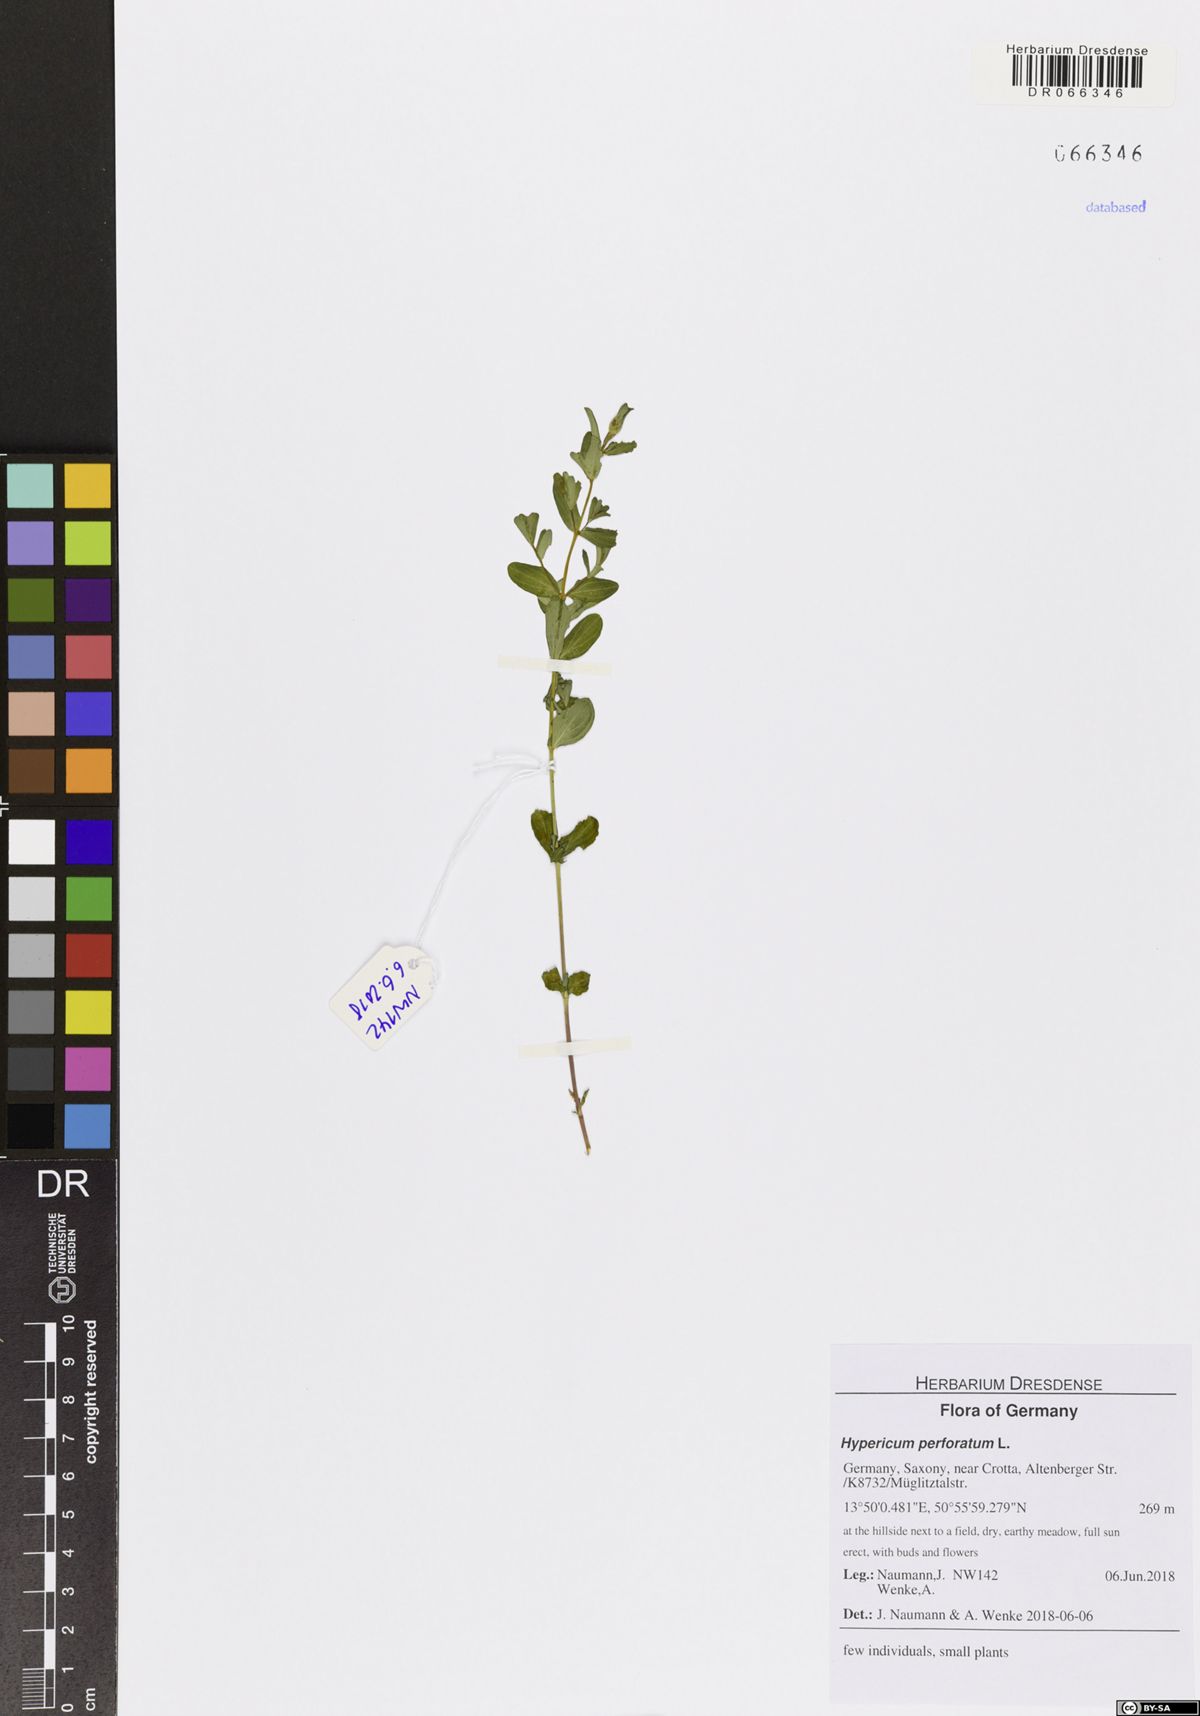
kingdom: Plantae
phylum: Tracheophyta
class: Magnoliopsida
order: Malpighiales
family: Hypericaceae
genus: Hypericum
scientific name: Hypericum perforatum
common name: Common st. johnswort
